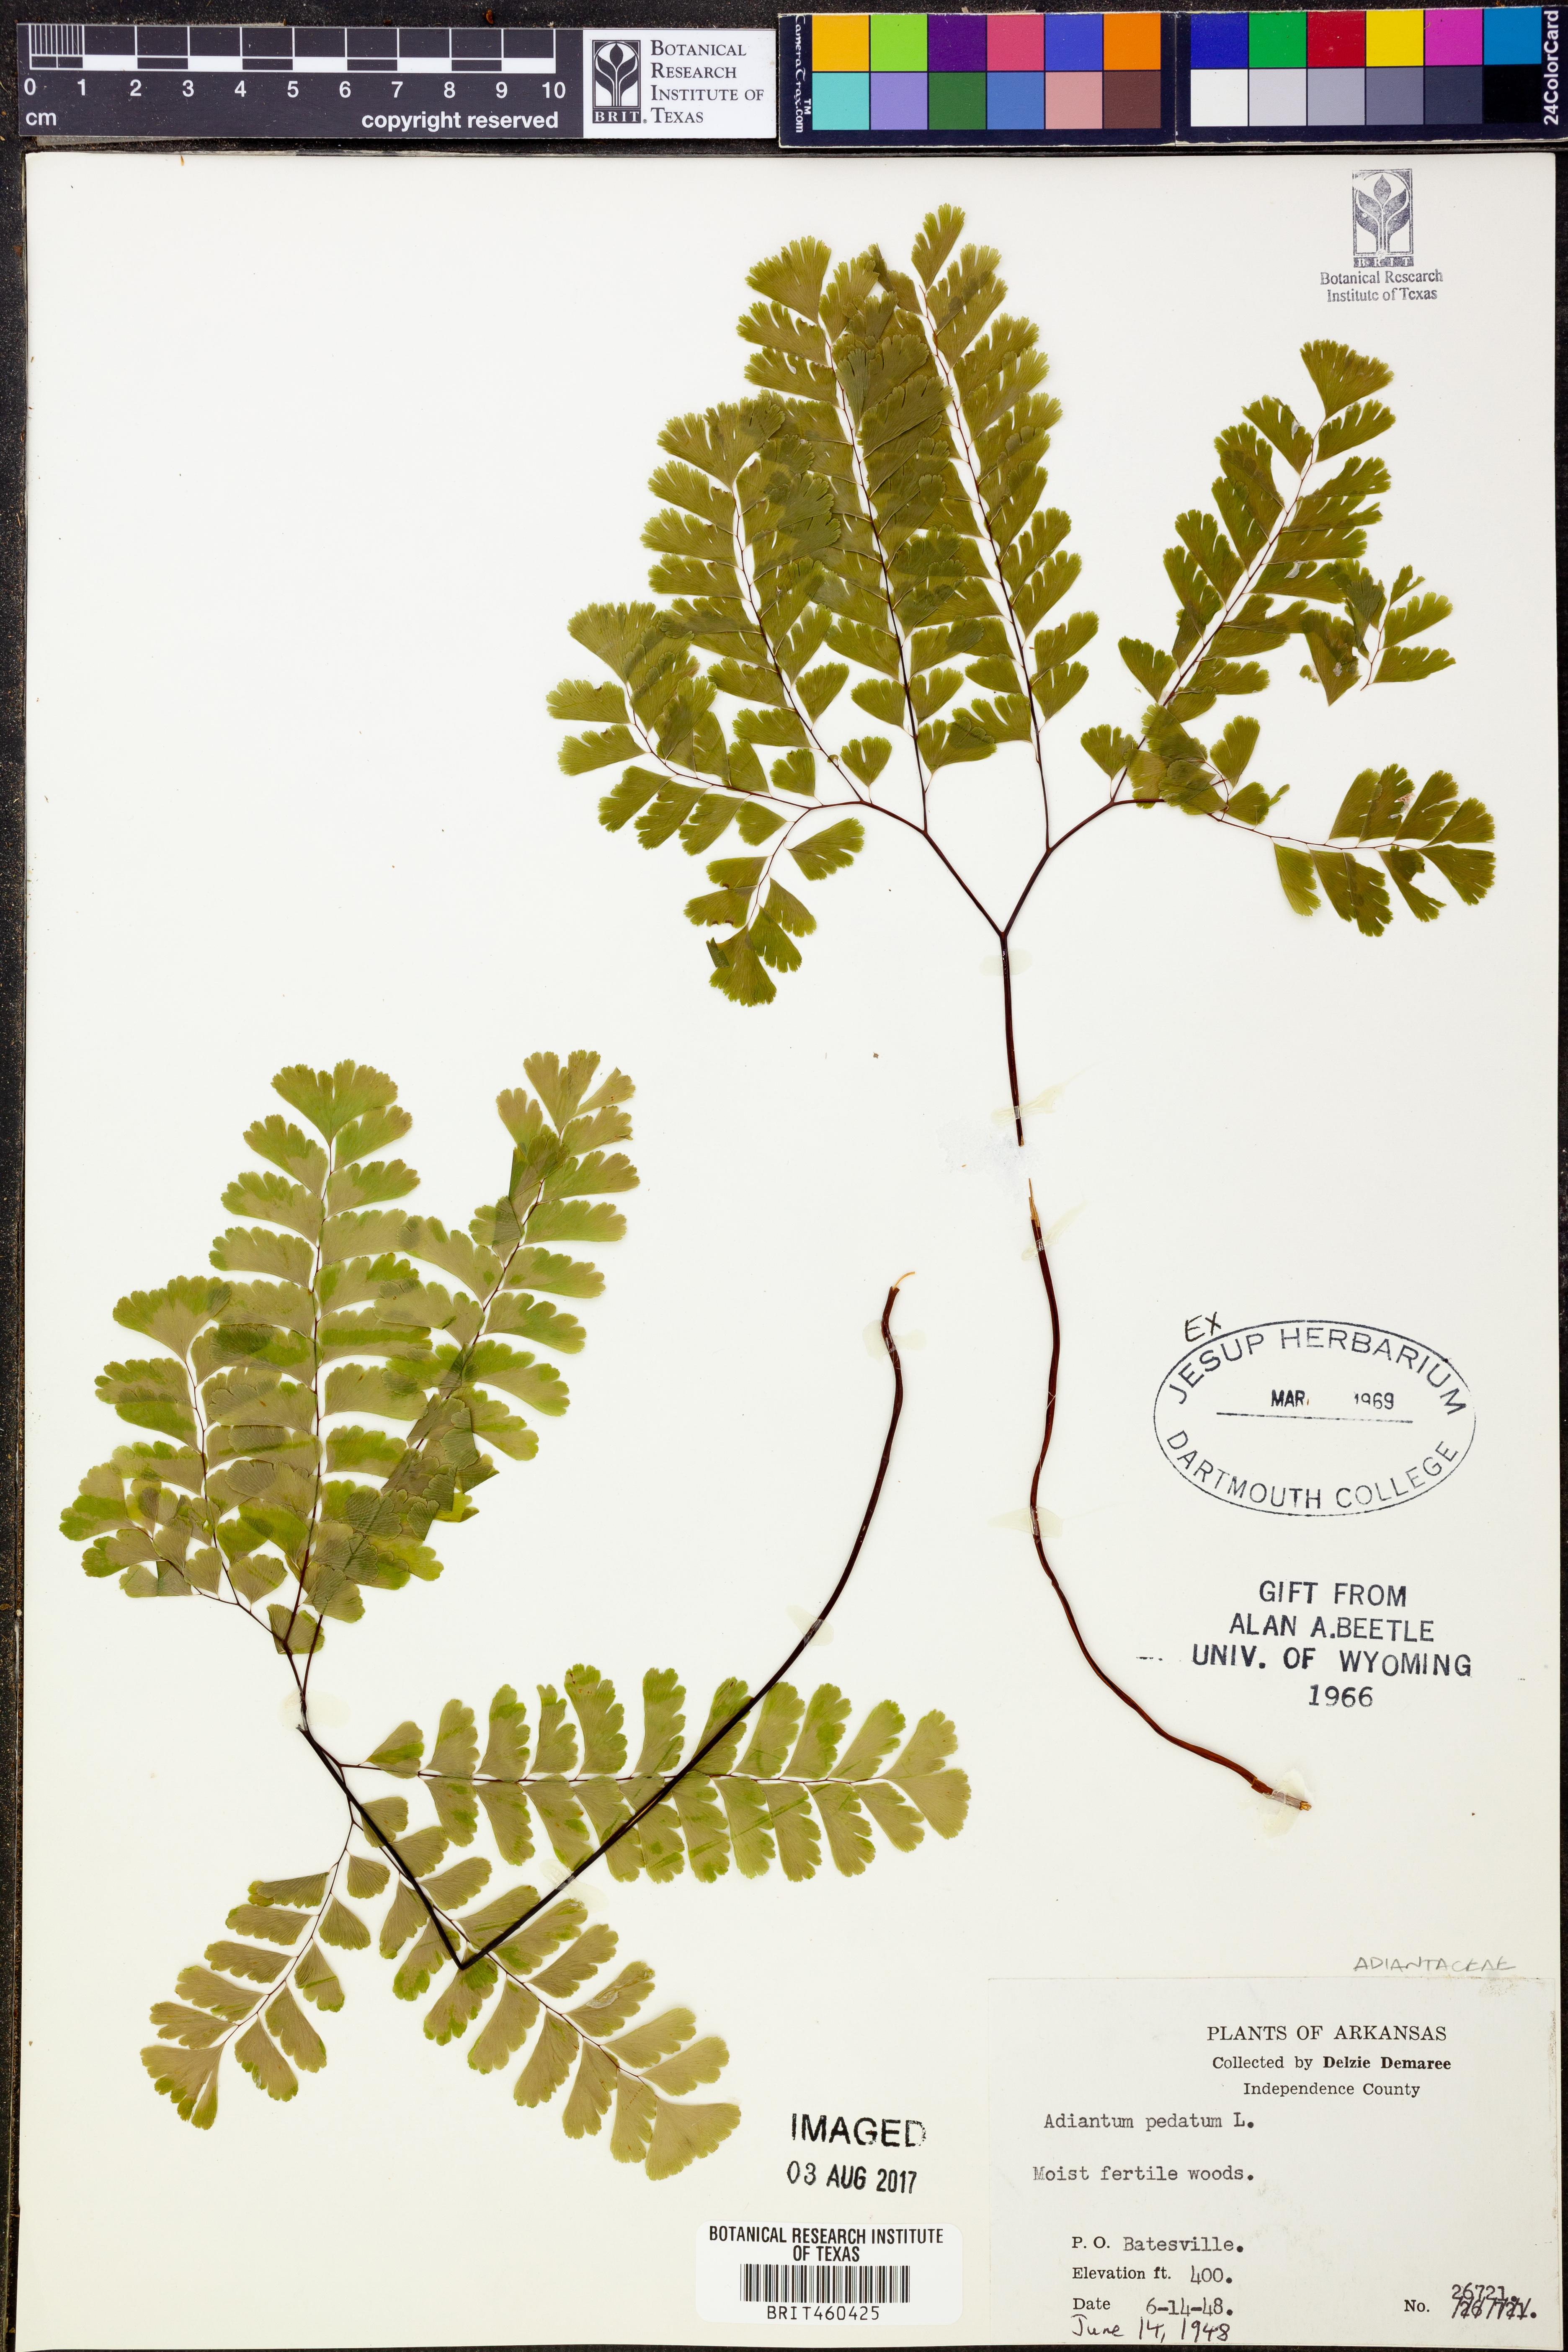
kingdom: Plantae
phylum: Tracheophyta
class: Polypodiopsida
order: Polypodiales
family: Pteridaceae
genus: Adiantum
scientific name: Adiantum pedatum
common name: Five-finger fern
